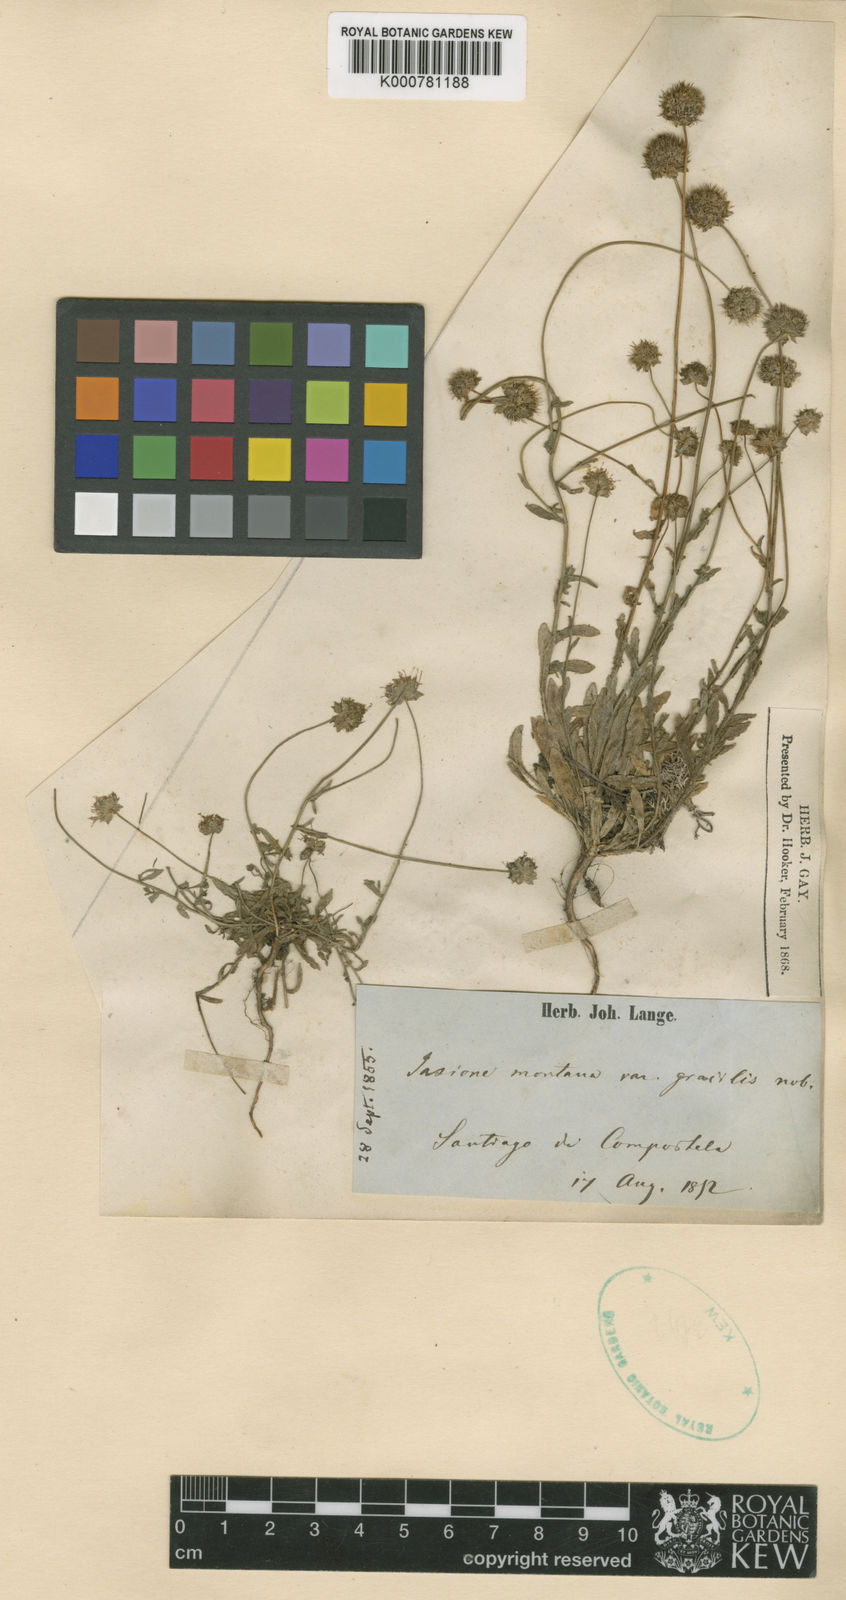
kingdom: Plantae
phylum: Tracheophyta
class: Magnoliopsida
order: Asterales
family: Campanulaceae
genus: Jasione
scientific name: Jasione montana
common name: Sheep's-bit
